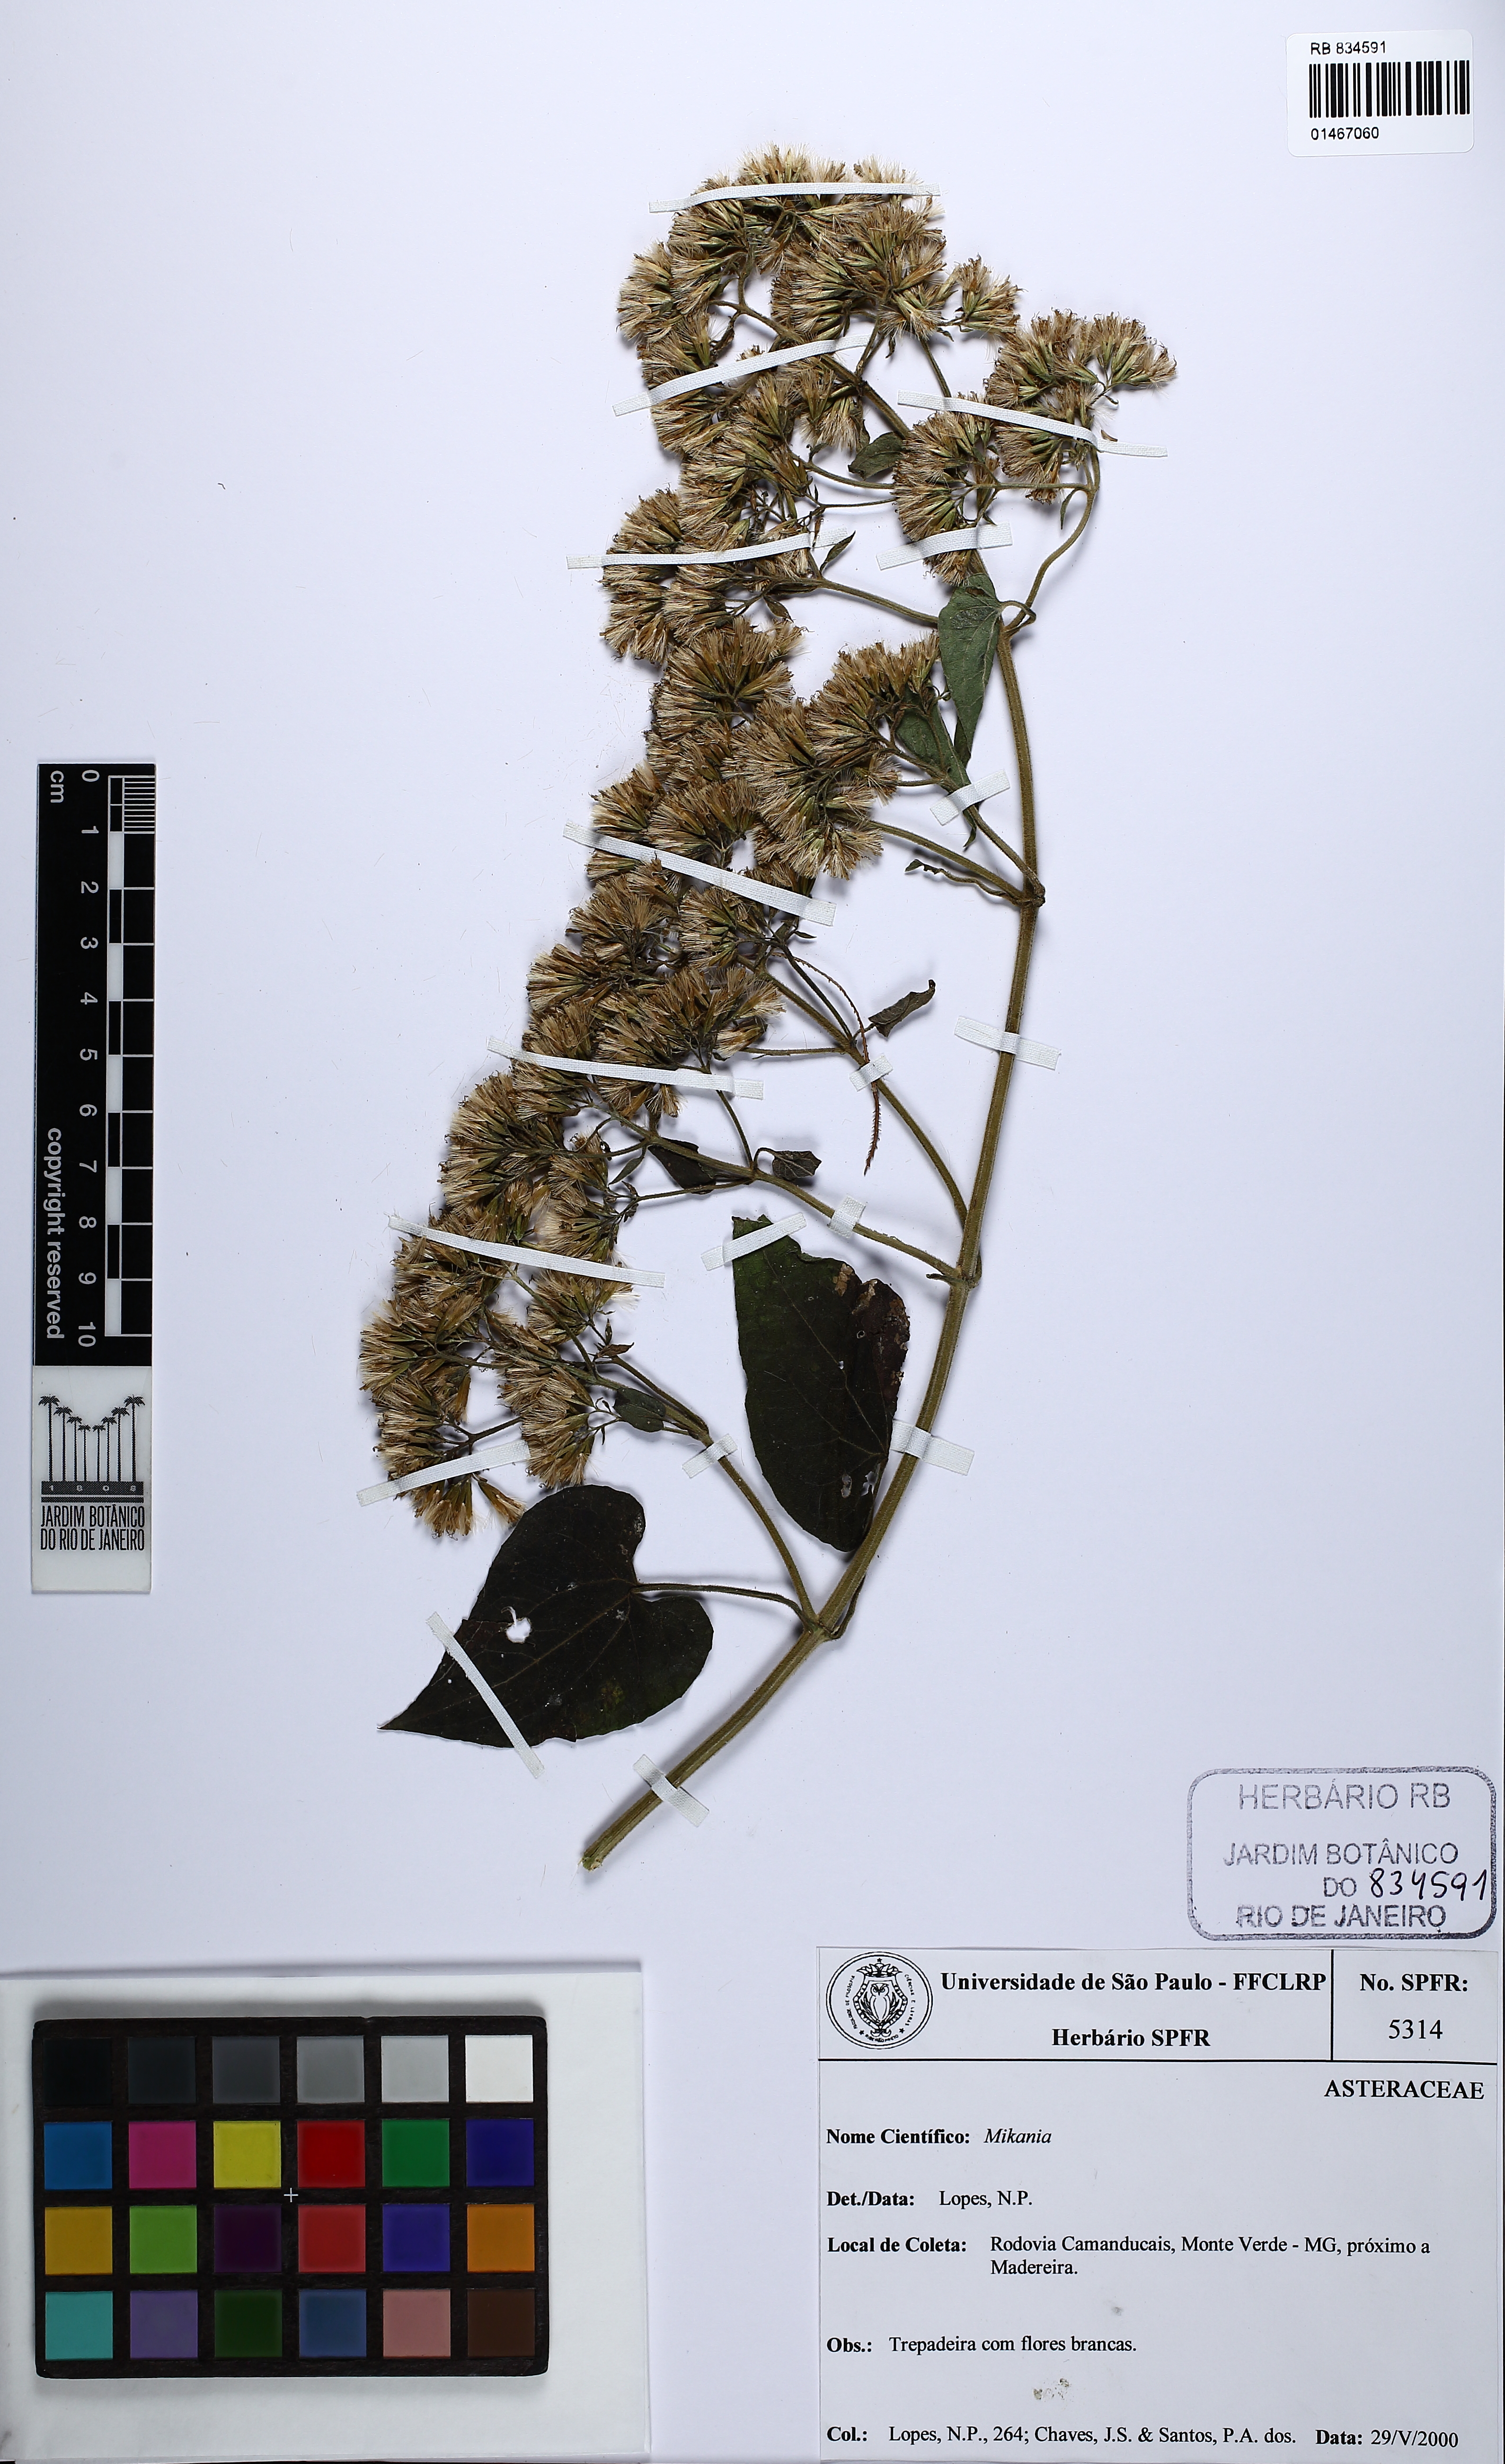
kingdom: Plantae
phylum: Tracheophyta
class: Magnoliopsida
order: Asterales
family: Asteraceae
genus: Mikania
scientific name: Mikania
